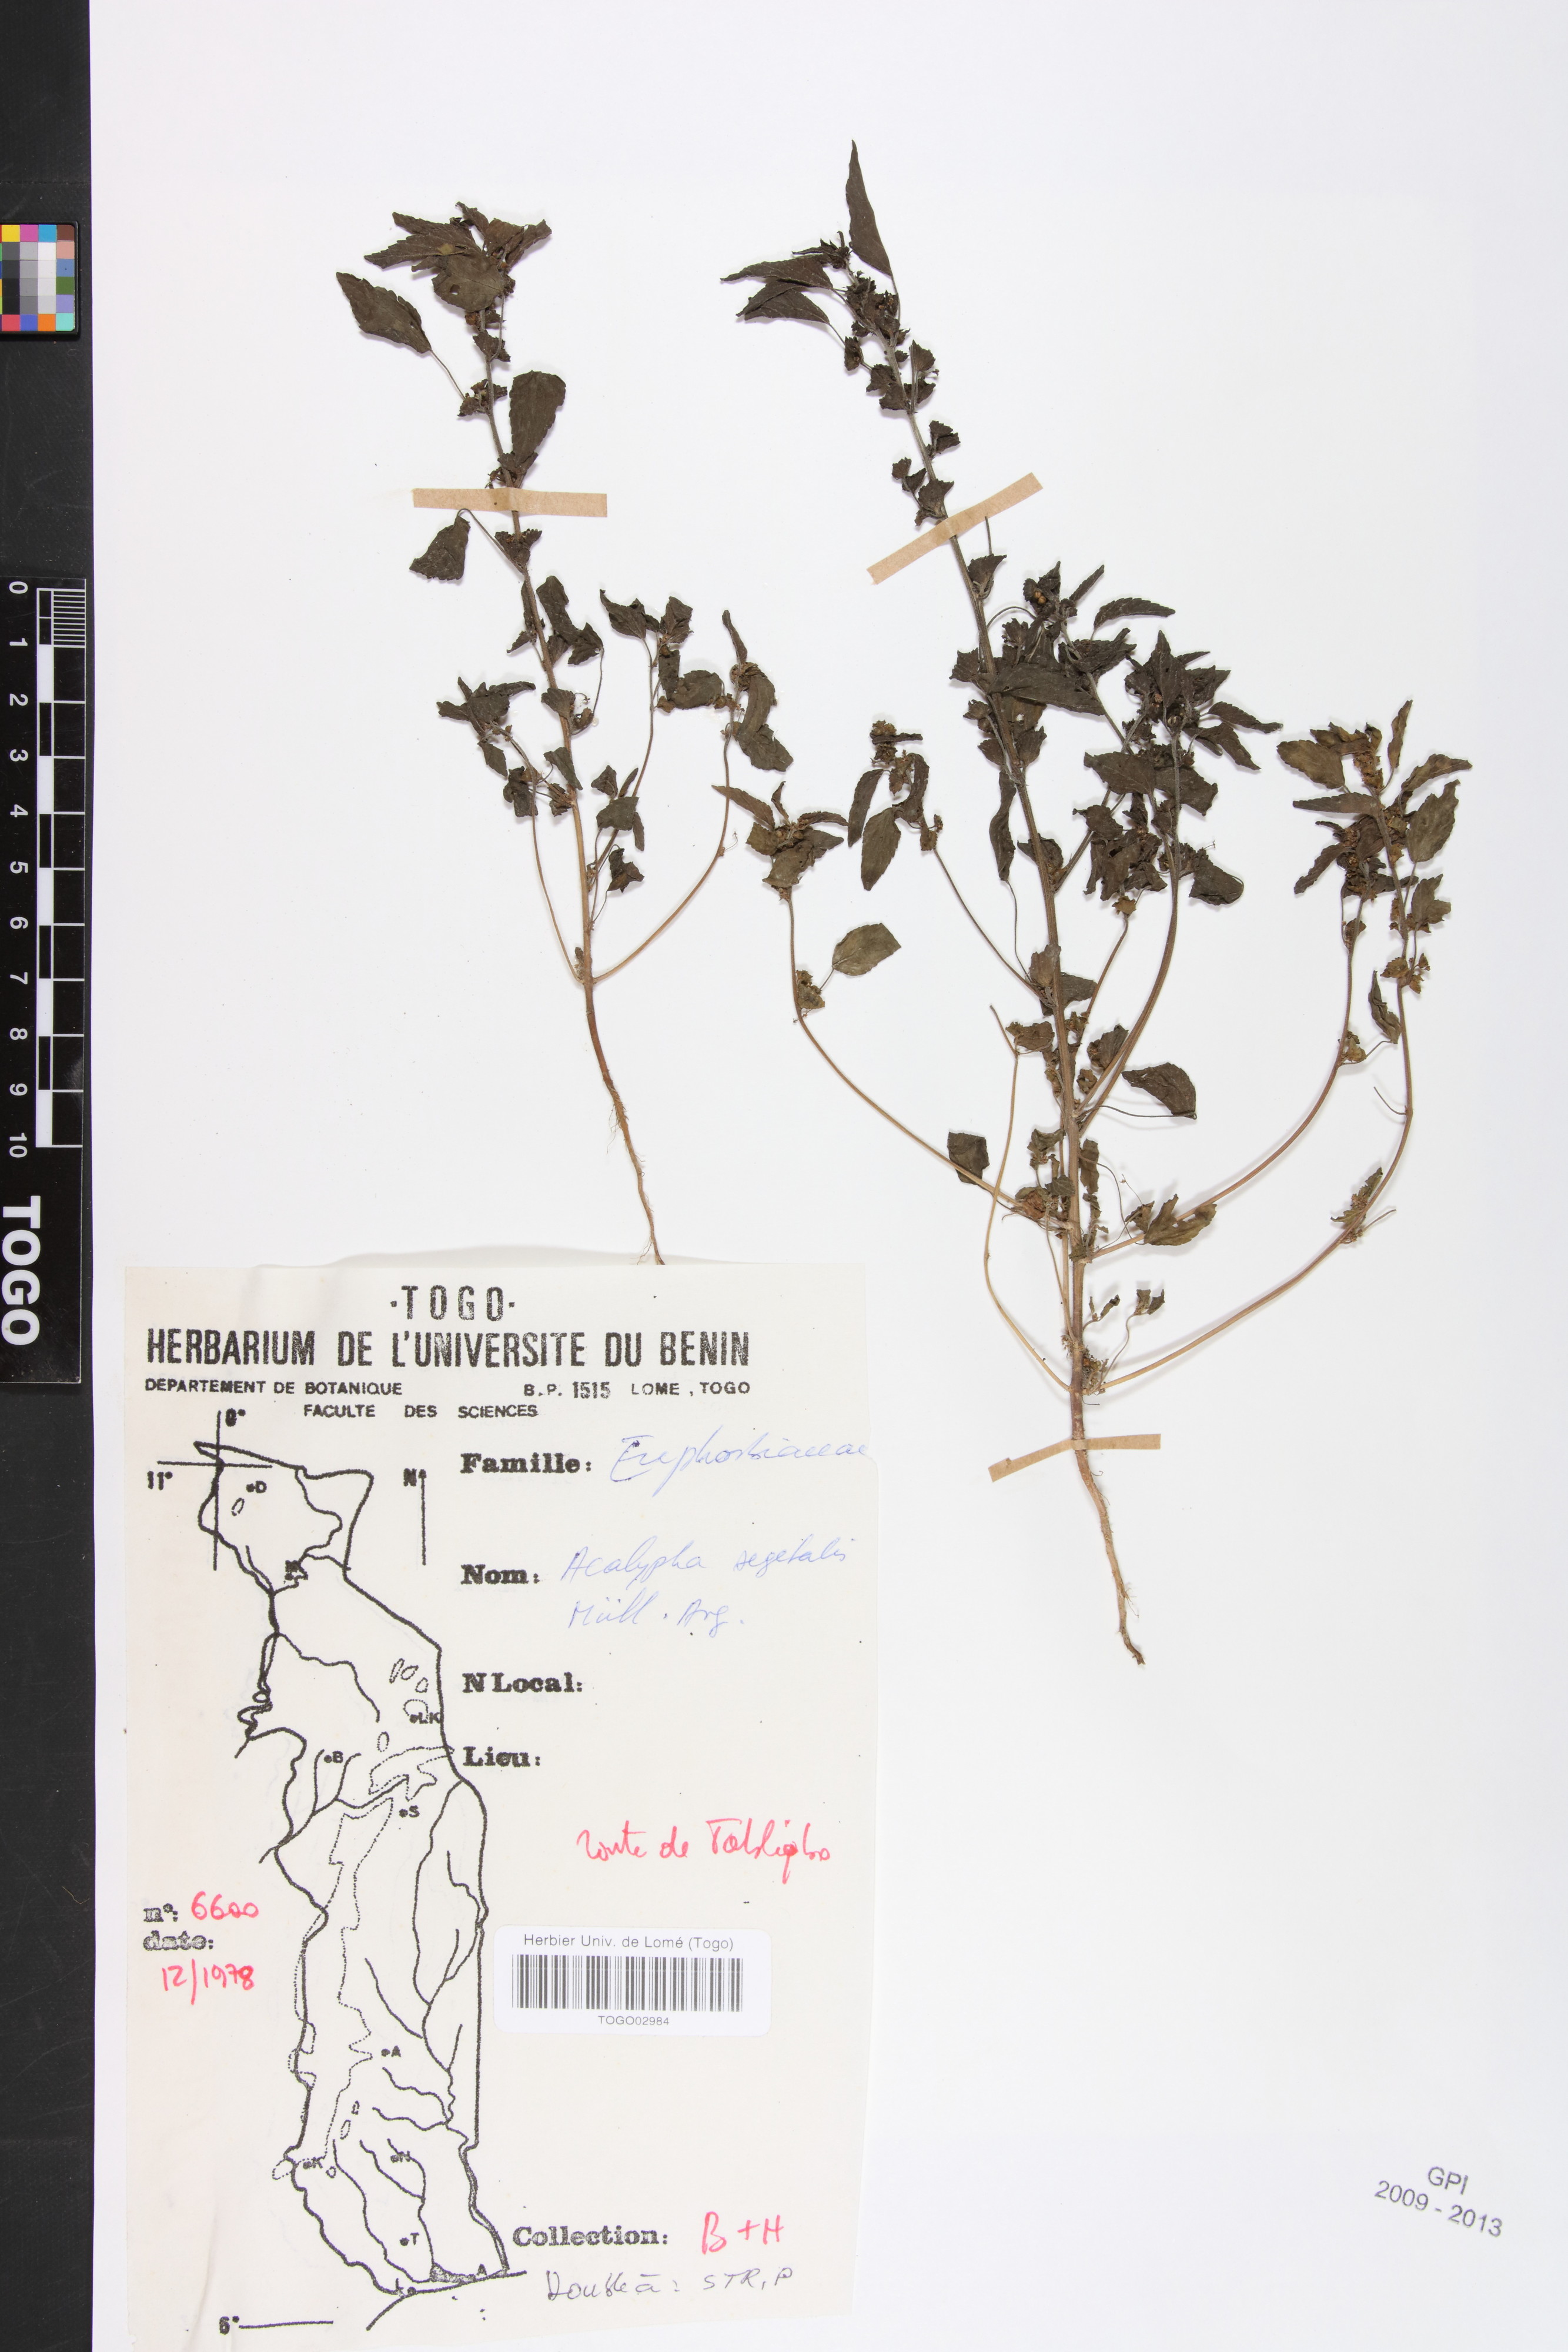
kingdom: Plantae
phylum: Tracheophyta
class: Magnoliopsida
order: Malpighiales
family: Euphorbiaceae
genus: Acalypha
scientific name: Acalypha segetalis
